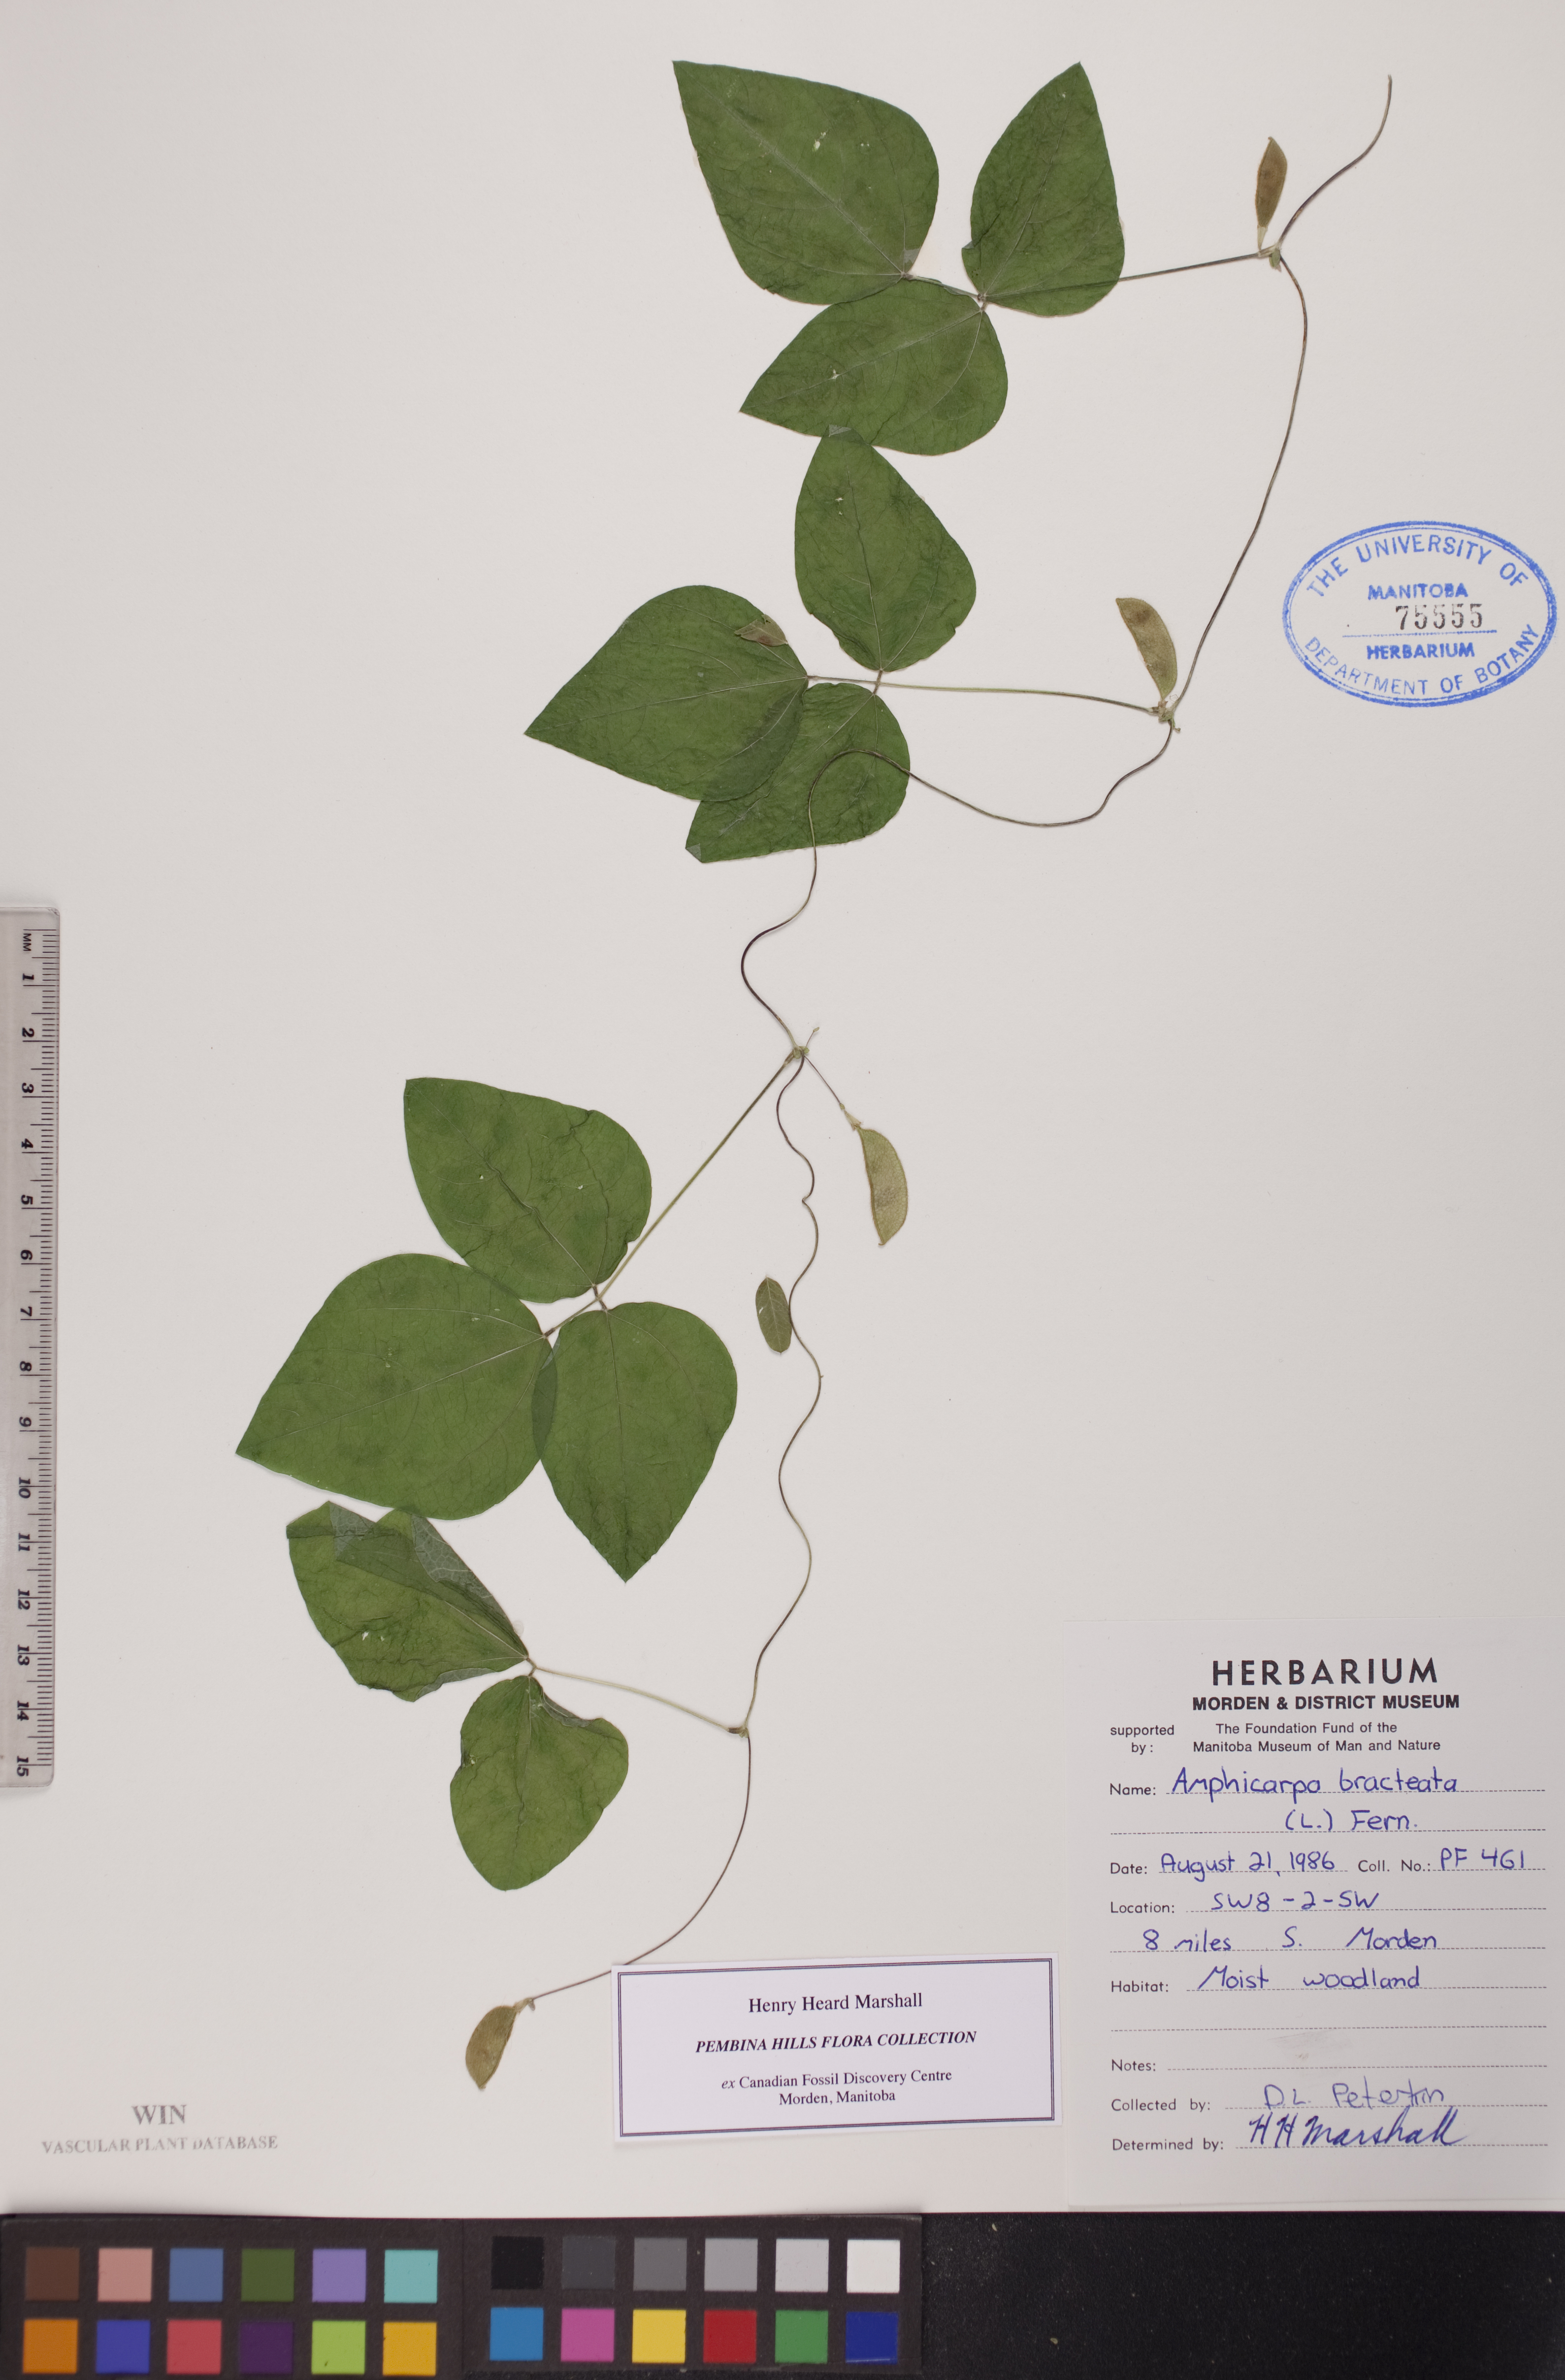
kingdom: Plantae
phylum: Tracheophyta
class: Magnoliopsida
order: Fabales
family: Fabaceae
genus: Amphicarpaea
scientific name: Amphicarpaea bracteata
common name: American hog peanut
